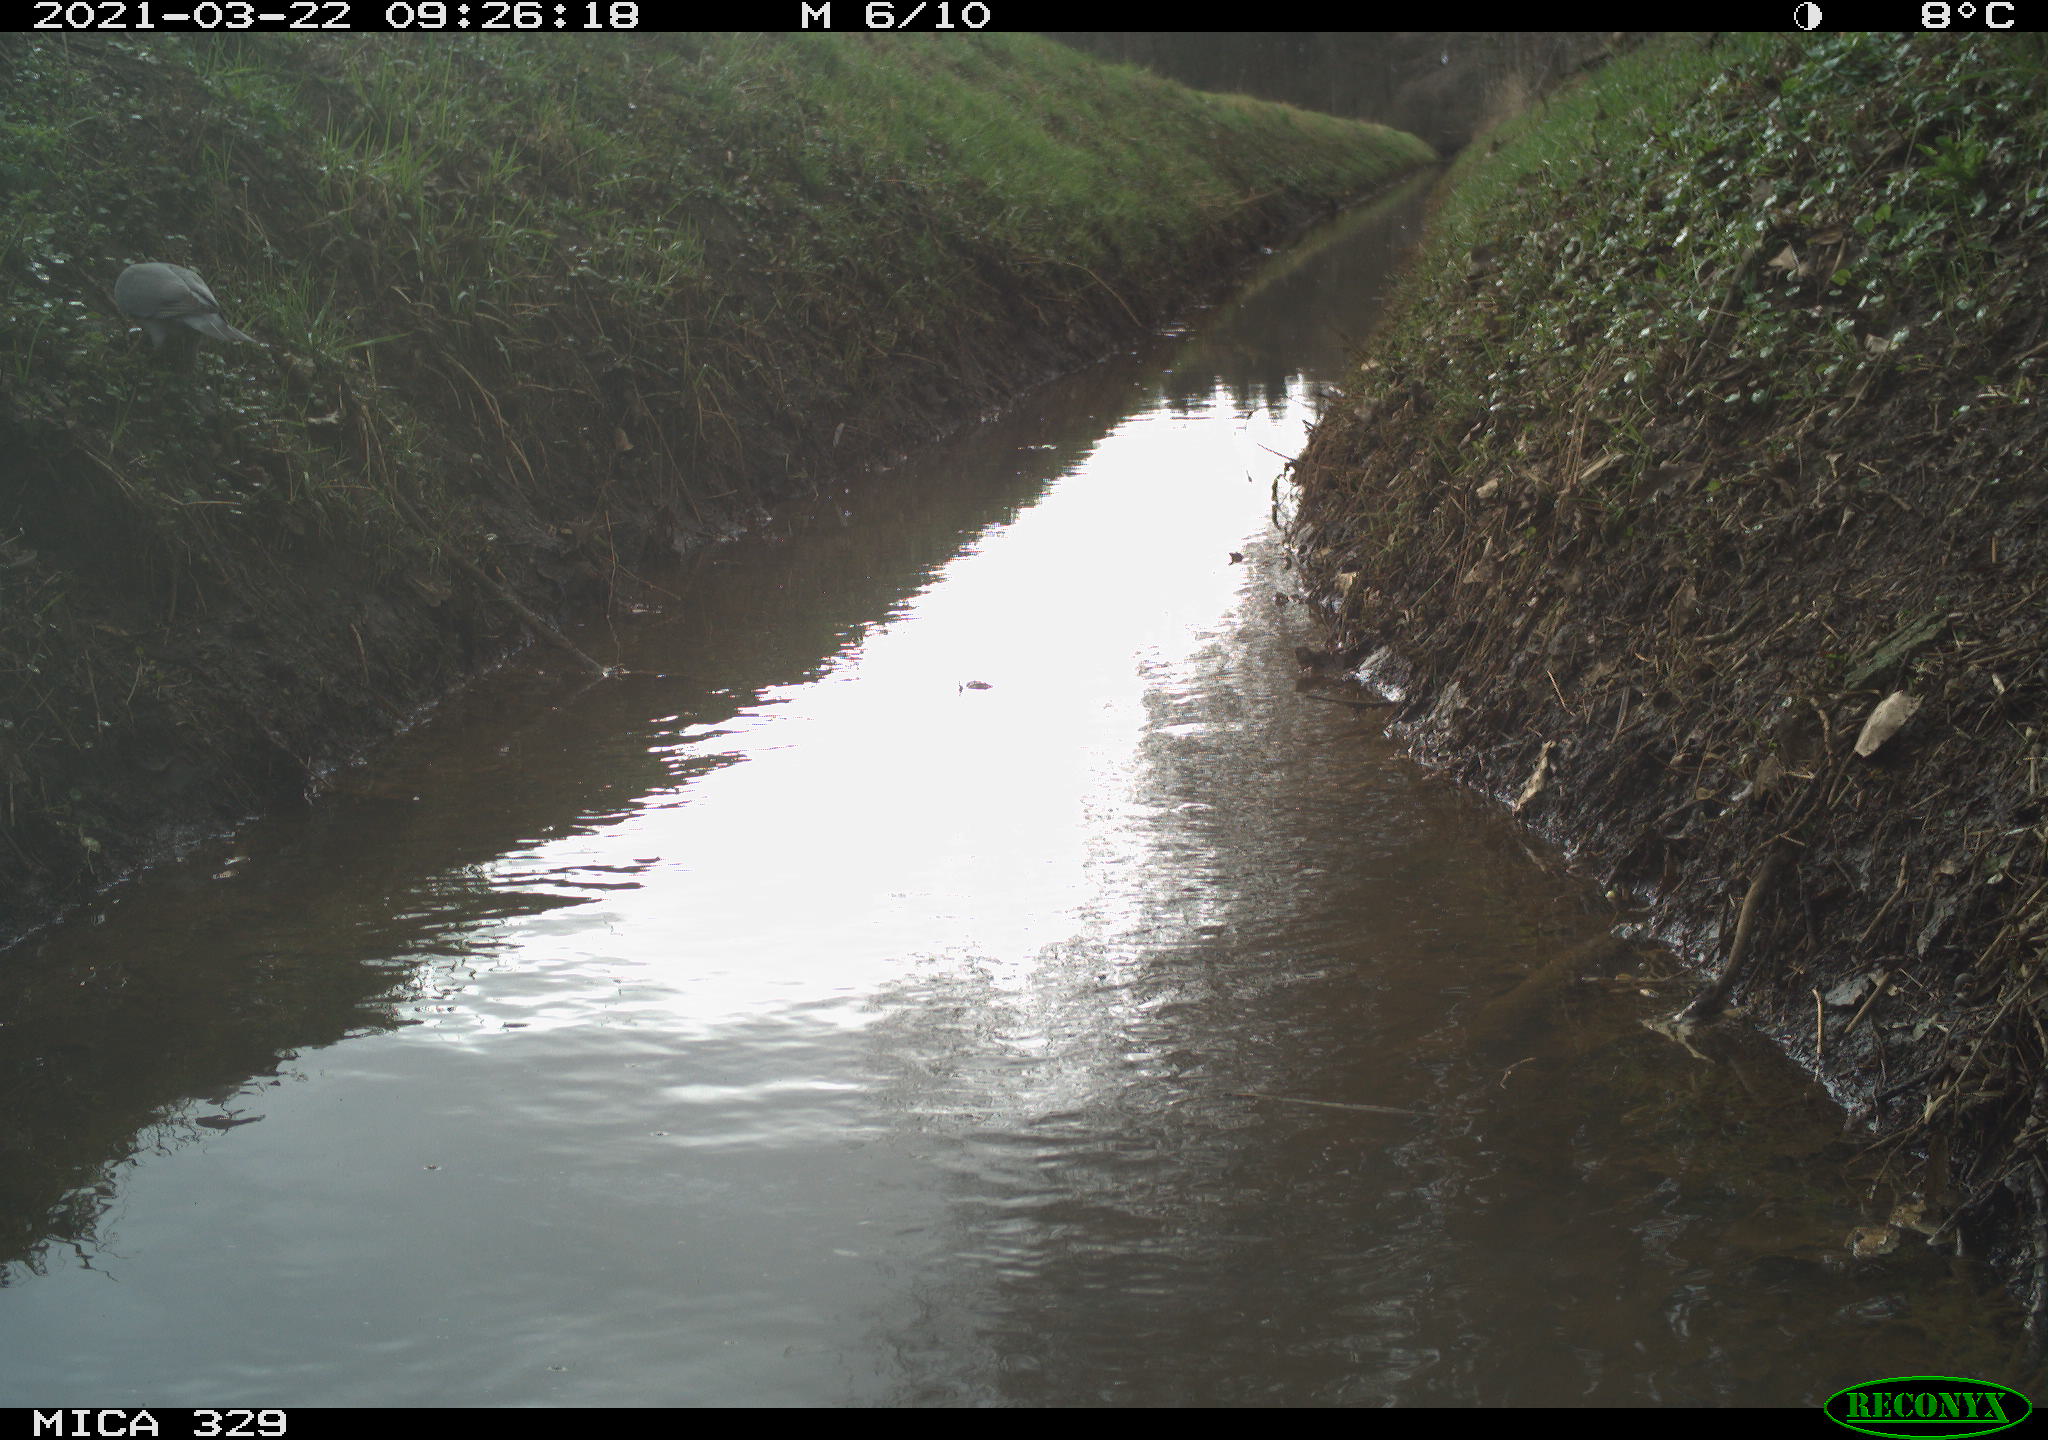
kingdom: Animalia
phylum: Chordata
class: Aves
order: Columbiformes
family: Columbidae
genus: Columba
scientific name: Columba palumbus
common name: Common wood pigeon
